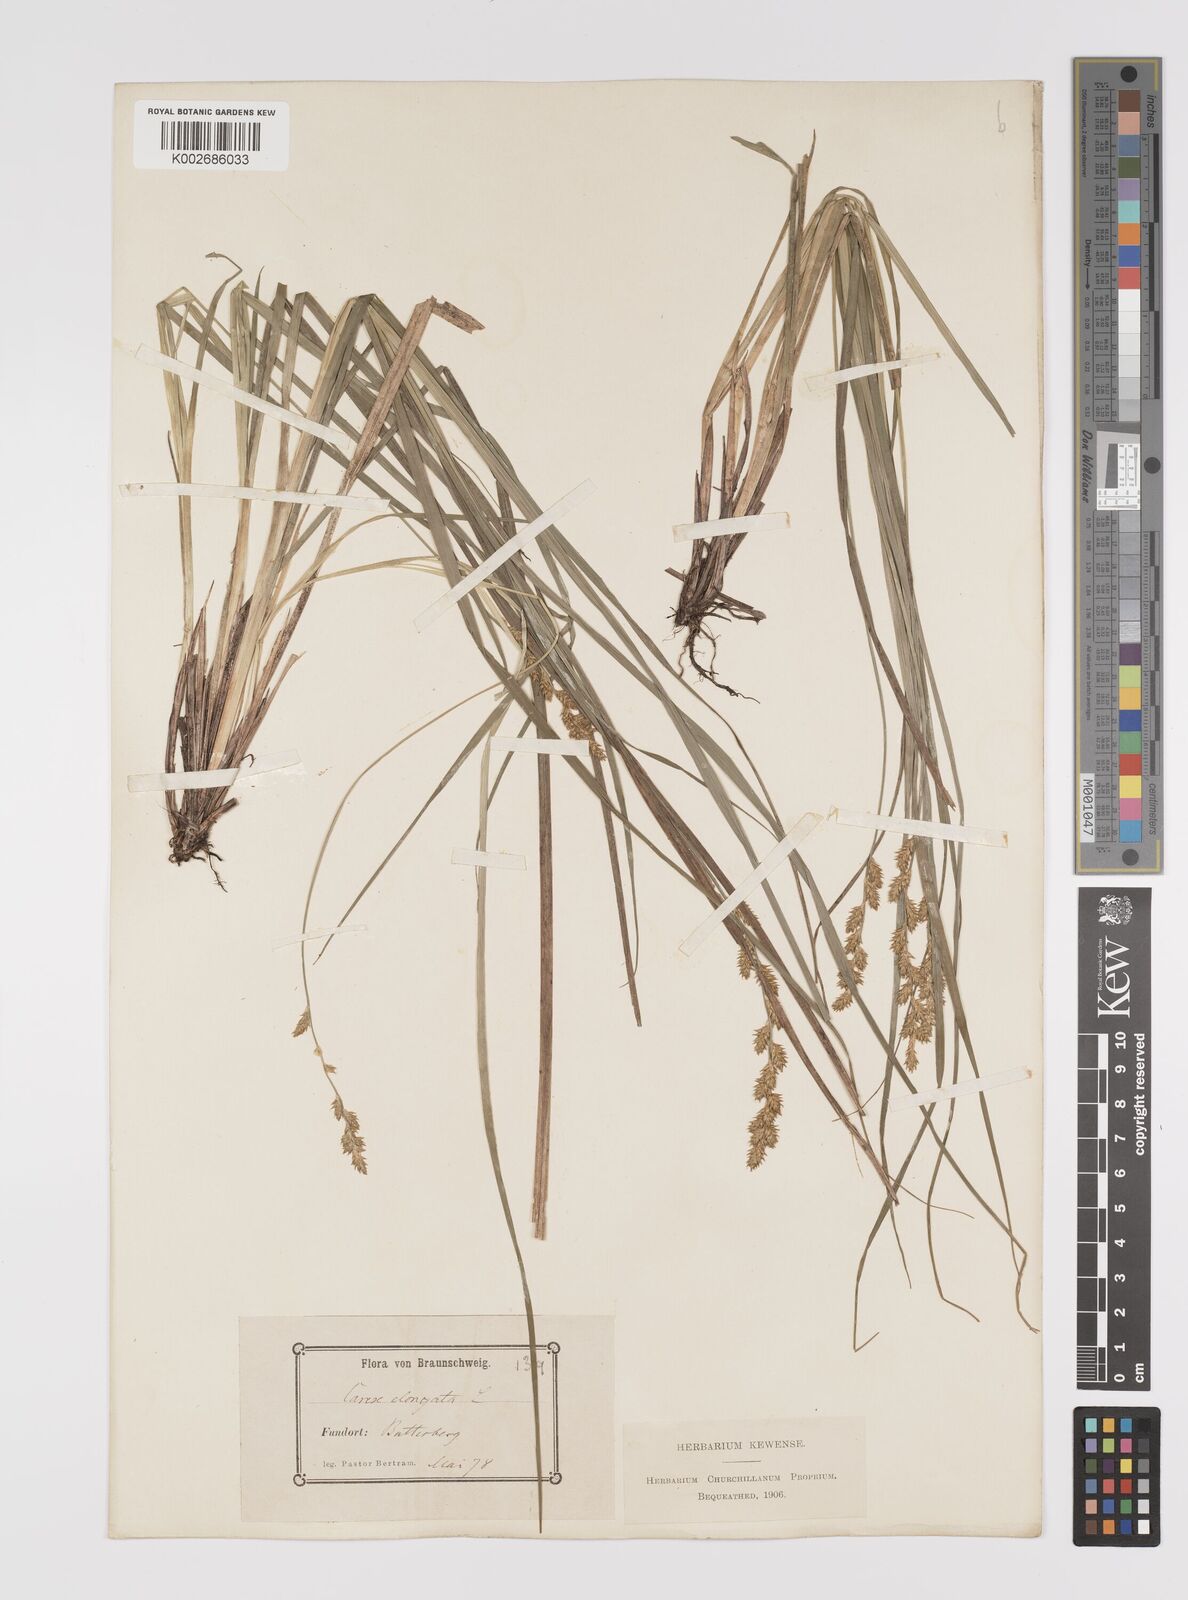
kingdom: Plantae
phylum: Tracheophyta
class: Liliopsida
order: Poales
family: Cyperaceae
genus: Carex
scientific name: Carex elongata
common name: Elongated sedge
